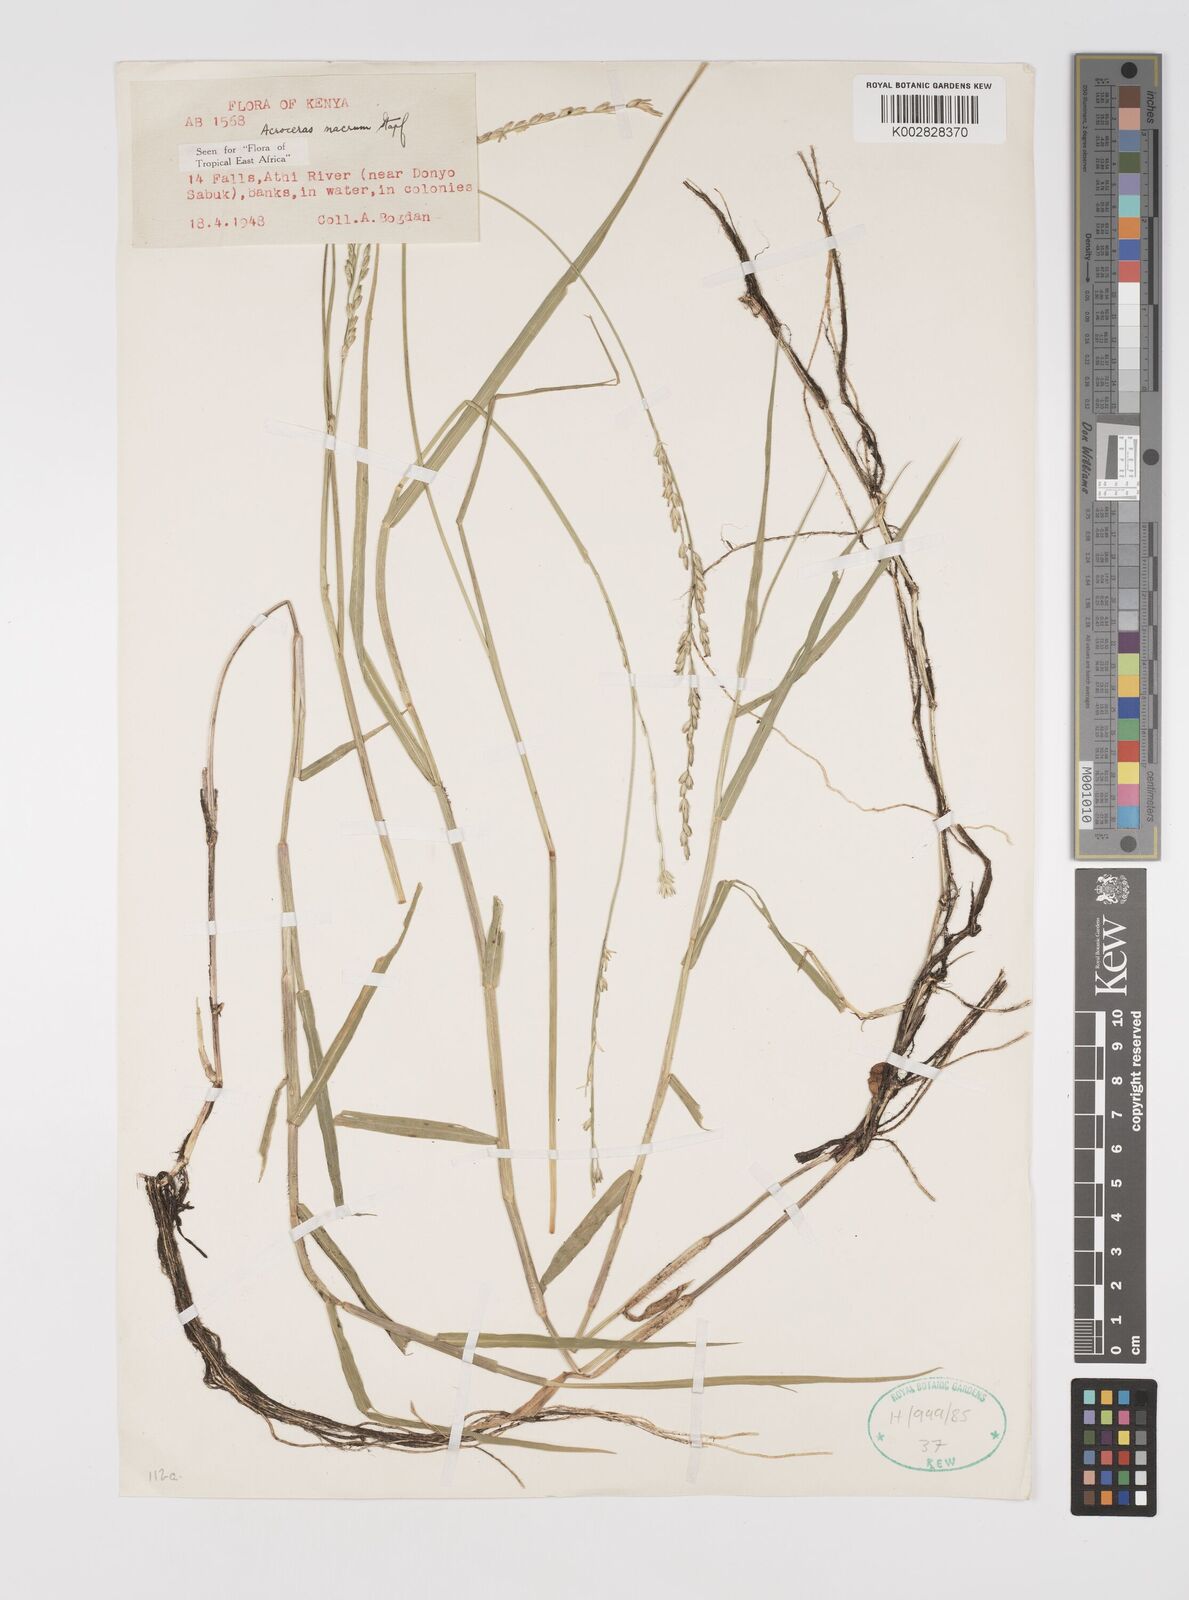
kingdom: Plantae
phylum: Tracheophyta
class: Liliopsida
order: Poales
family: Poaceae
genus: Acroceras
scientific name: Acroceras macrum
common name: Nyl grass
